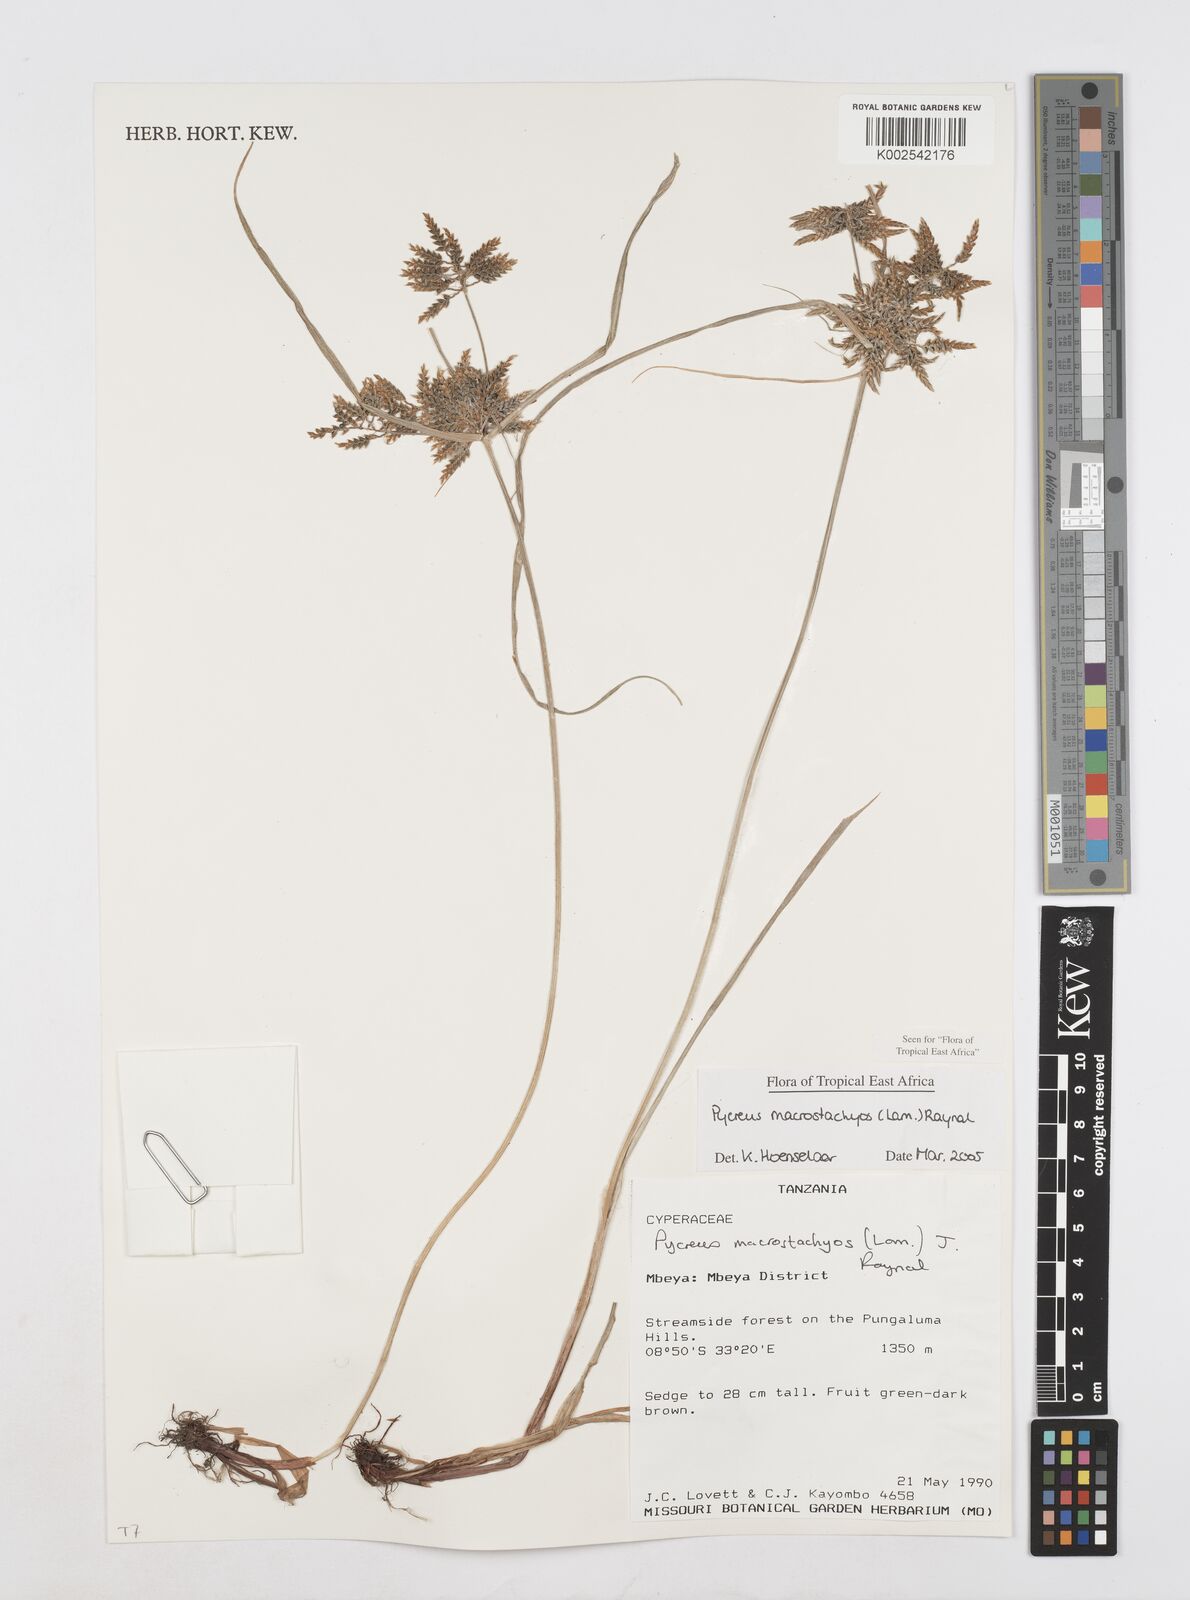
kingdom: Plantae
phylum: Tracheophyta
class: Liliopsida
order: Poales
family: Cyperaceae
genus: Cyperus
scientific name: Cyperus macrostachyos
